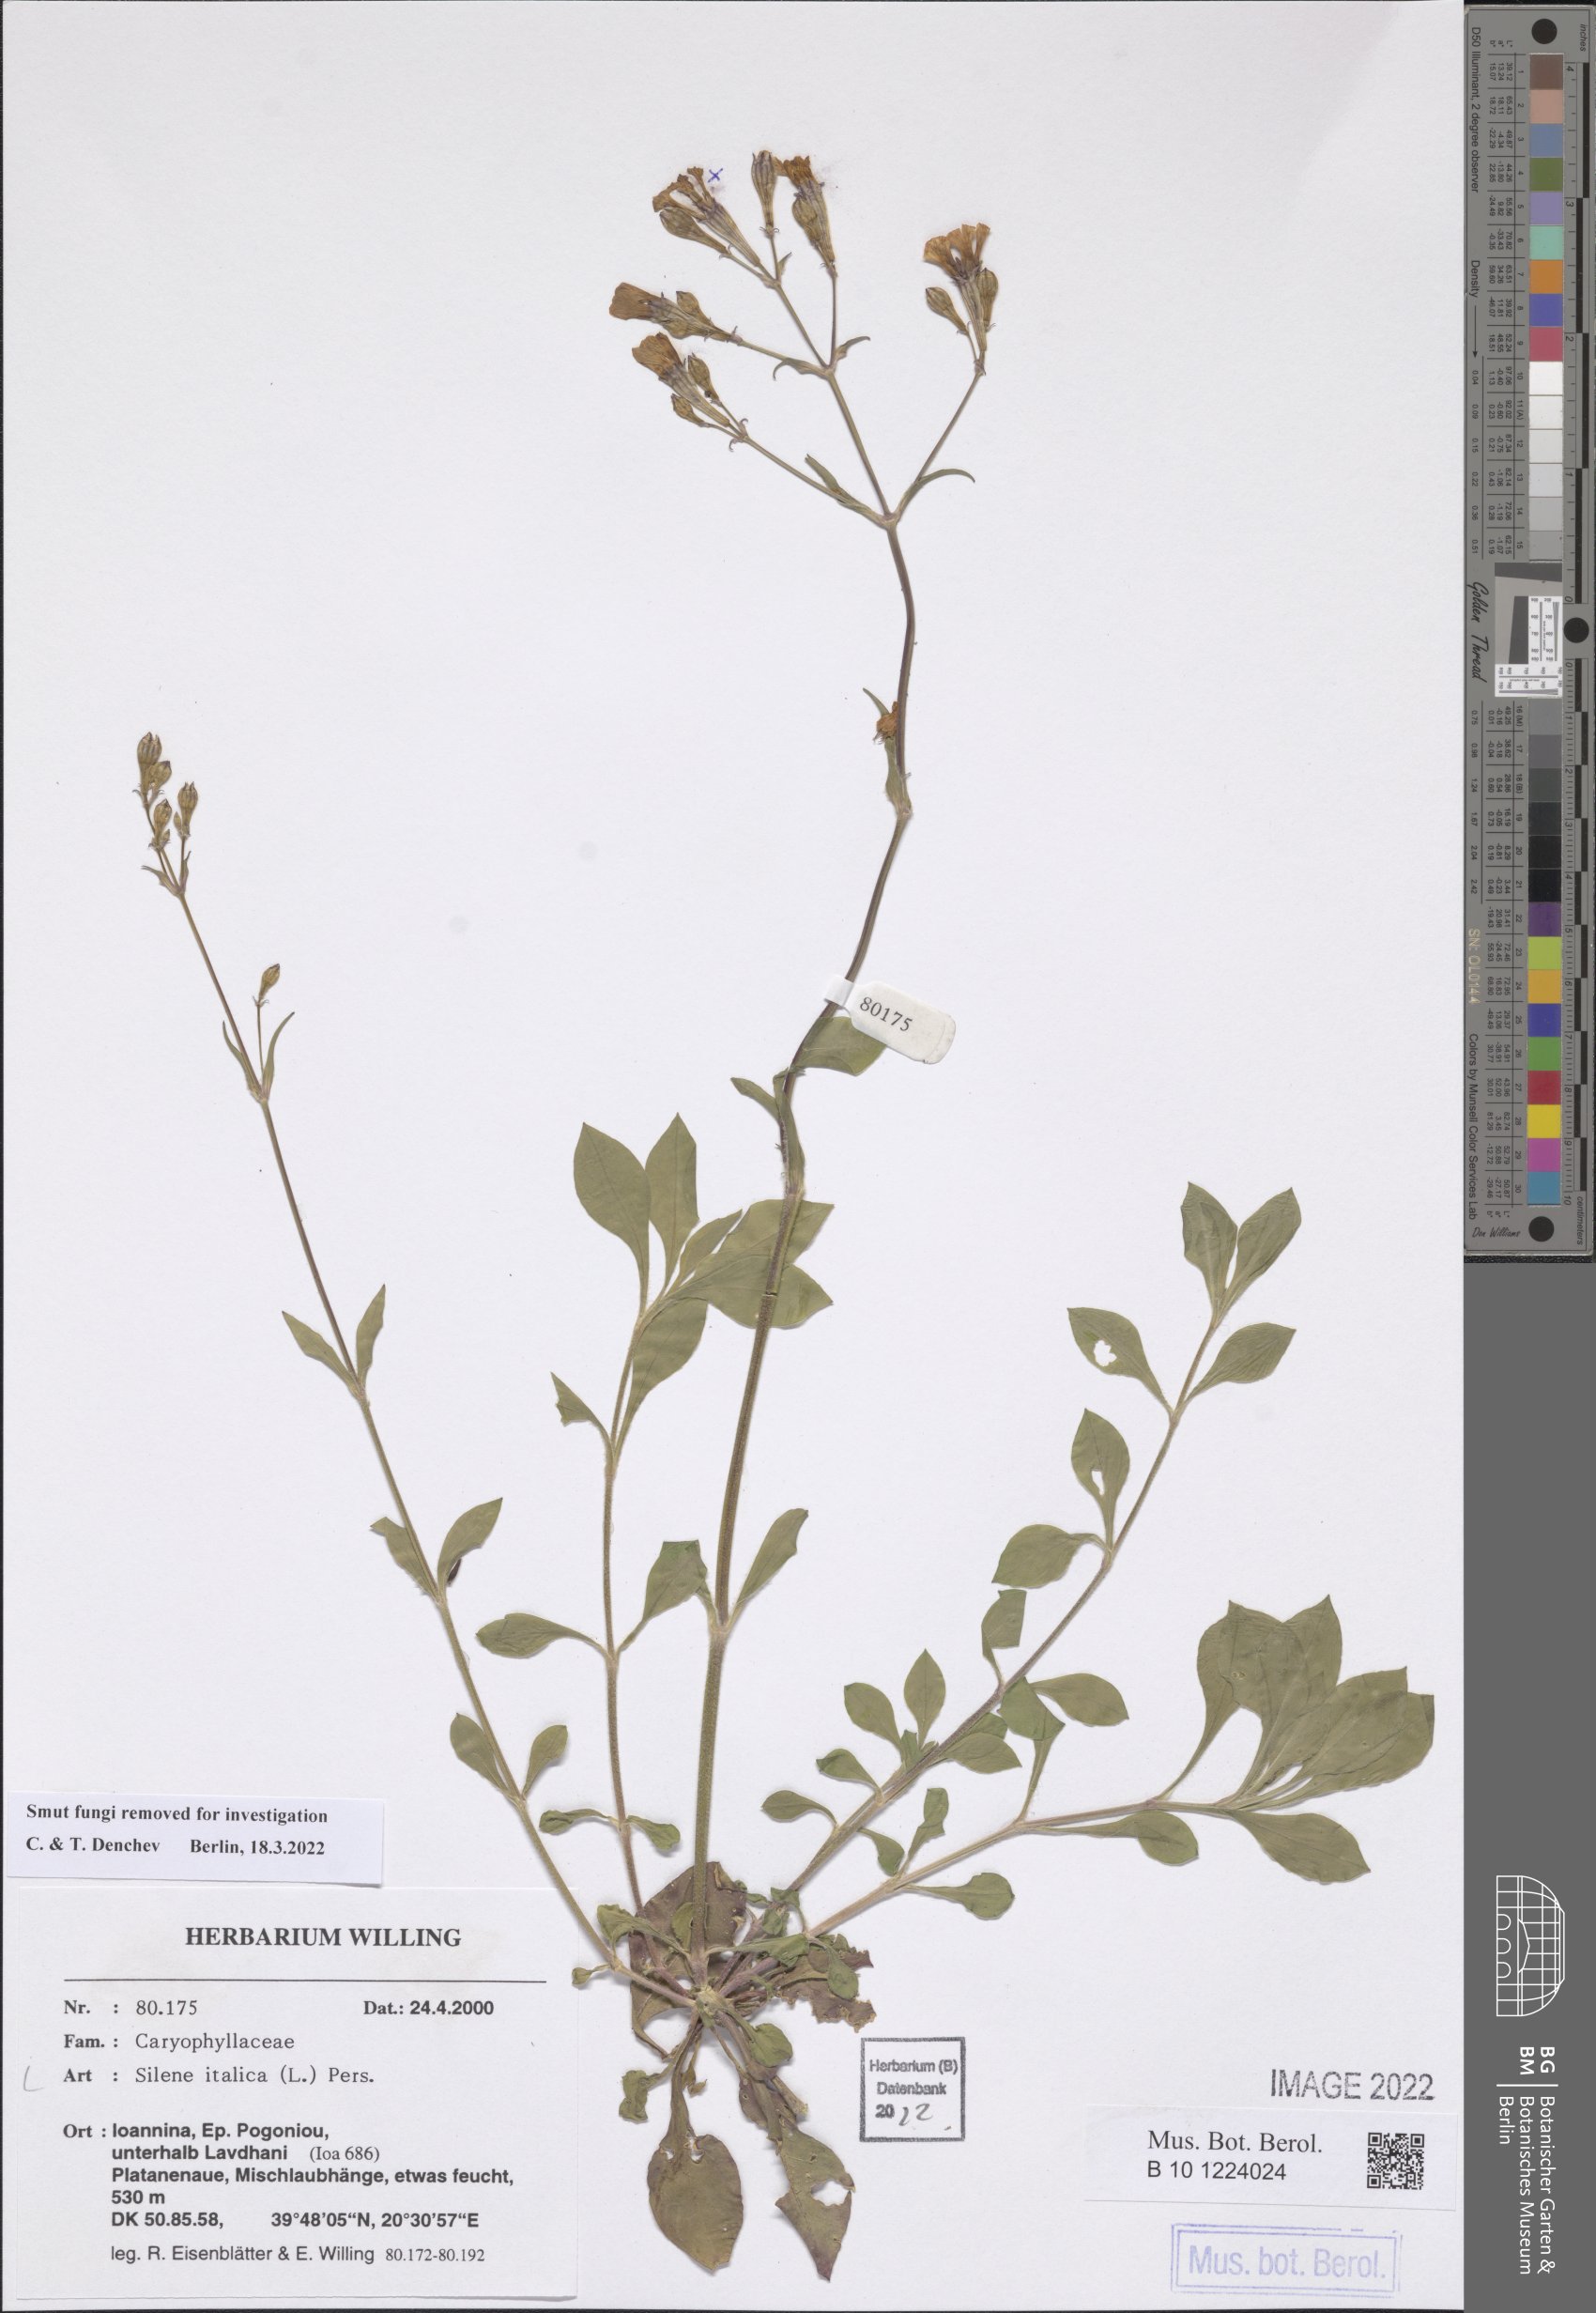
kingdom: Plantae
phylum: Tracheophyta
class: Magnoliopsida
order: Caryophyllales
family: Caryophyllaceae
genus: Silene
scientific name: Silene italica
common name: Italian catchfly
